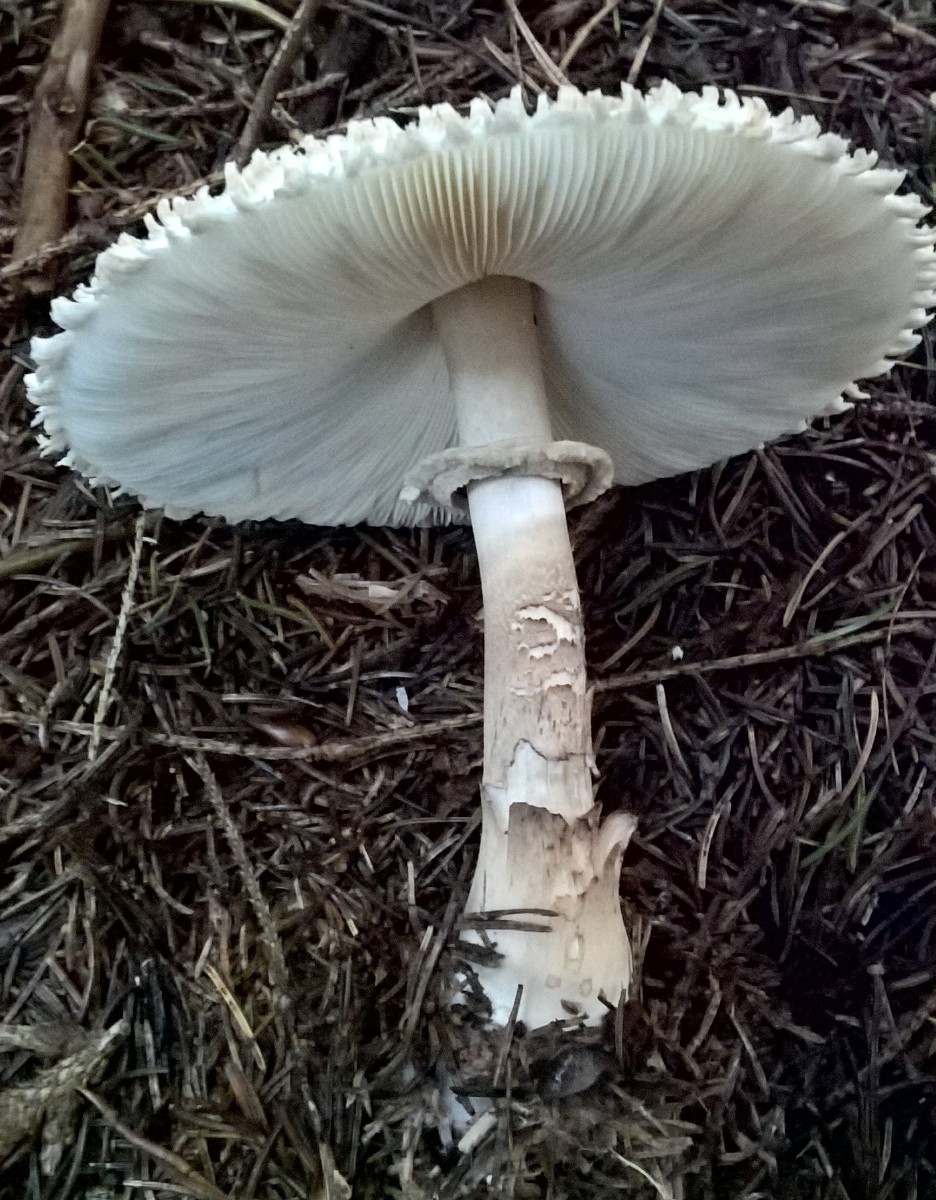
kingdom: Fungi
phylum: Basidiomycota
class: Agaricomycetes
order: Agaricales
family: Agaricaceae
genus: Leucoagaricus
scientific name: Leucoagaricus nympharum
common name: gran-silkehat
